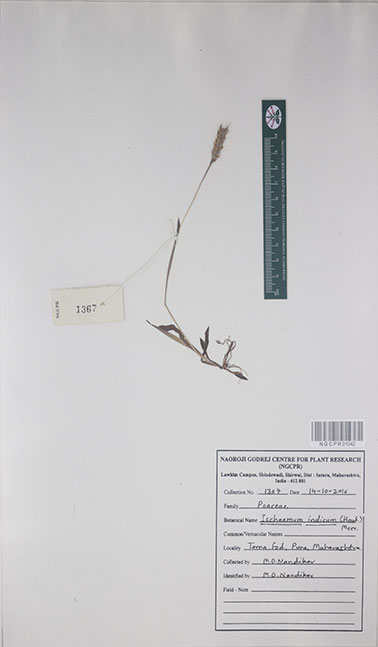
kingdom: Plantae
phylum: Tracheophyta
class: Liliopsida
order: Poales
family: Poaceae
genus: Polytrias
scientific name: Polytrias indica
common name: Indian murainagrass
